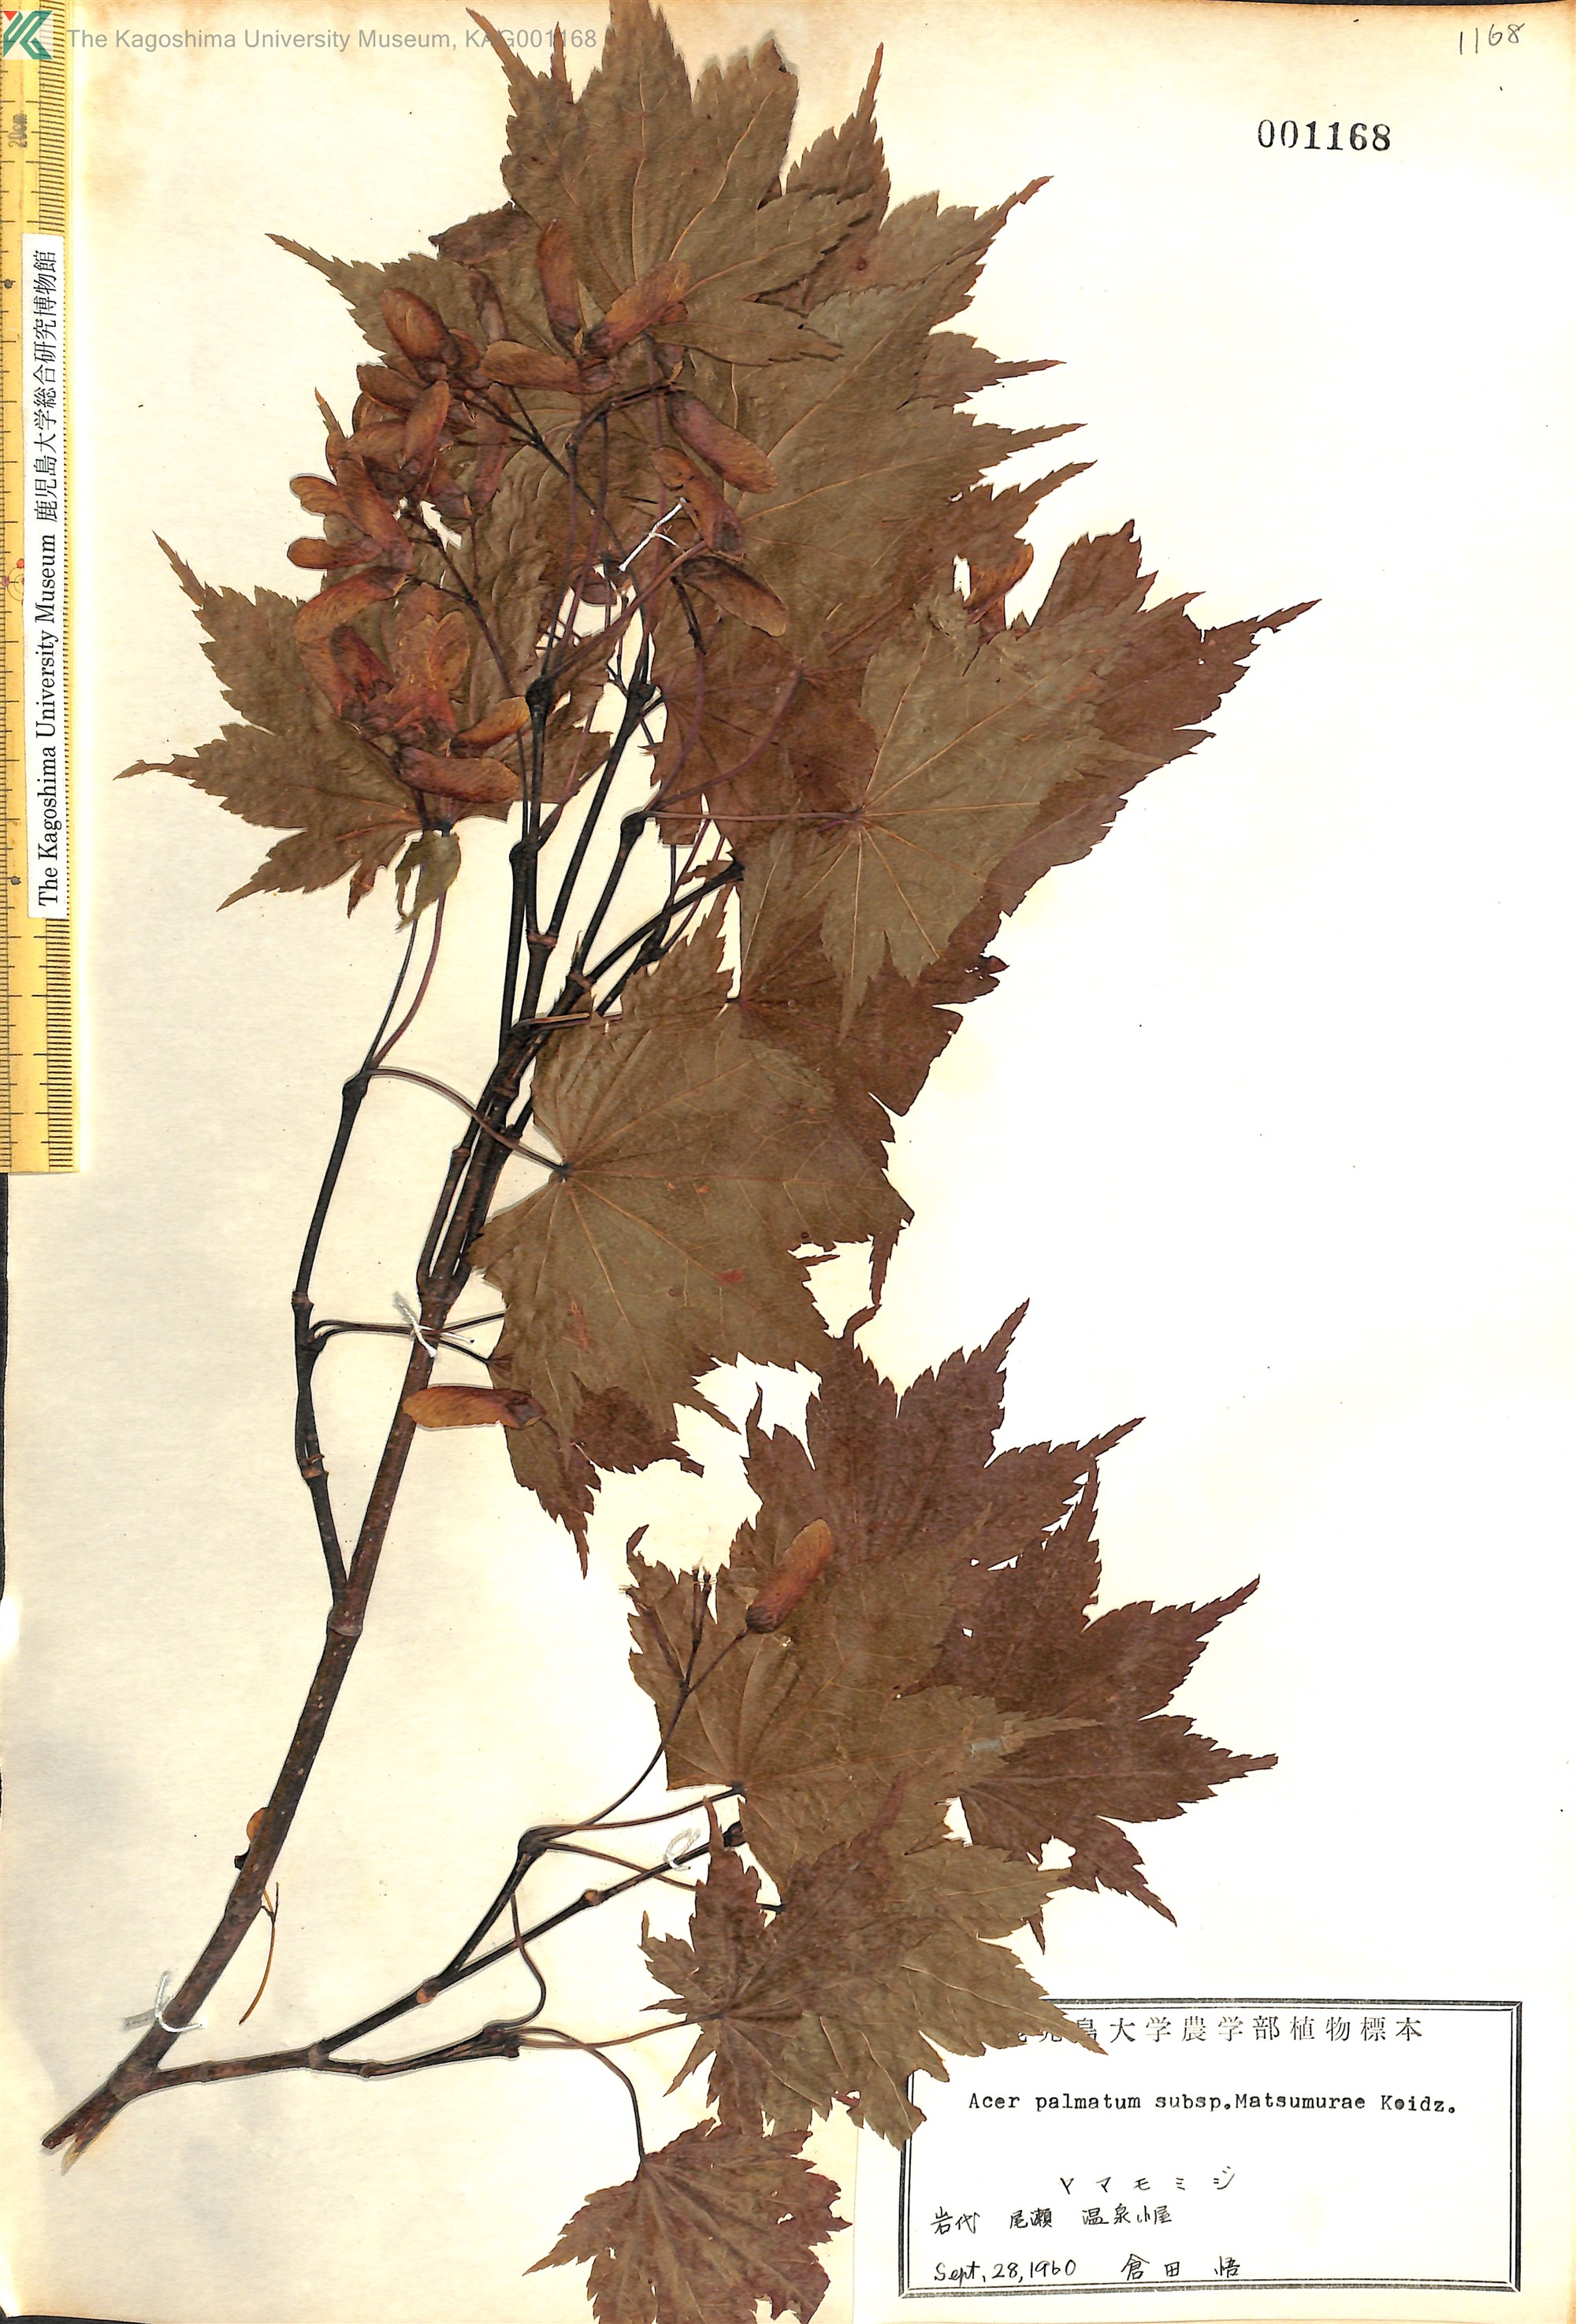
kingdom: Plantae
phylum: Tracheophyta
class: Magnoliopsida
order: Sapindales
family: Sapindaceae
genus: Acer
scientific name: Acer palmatum
